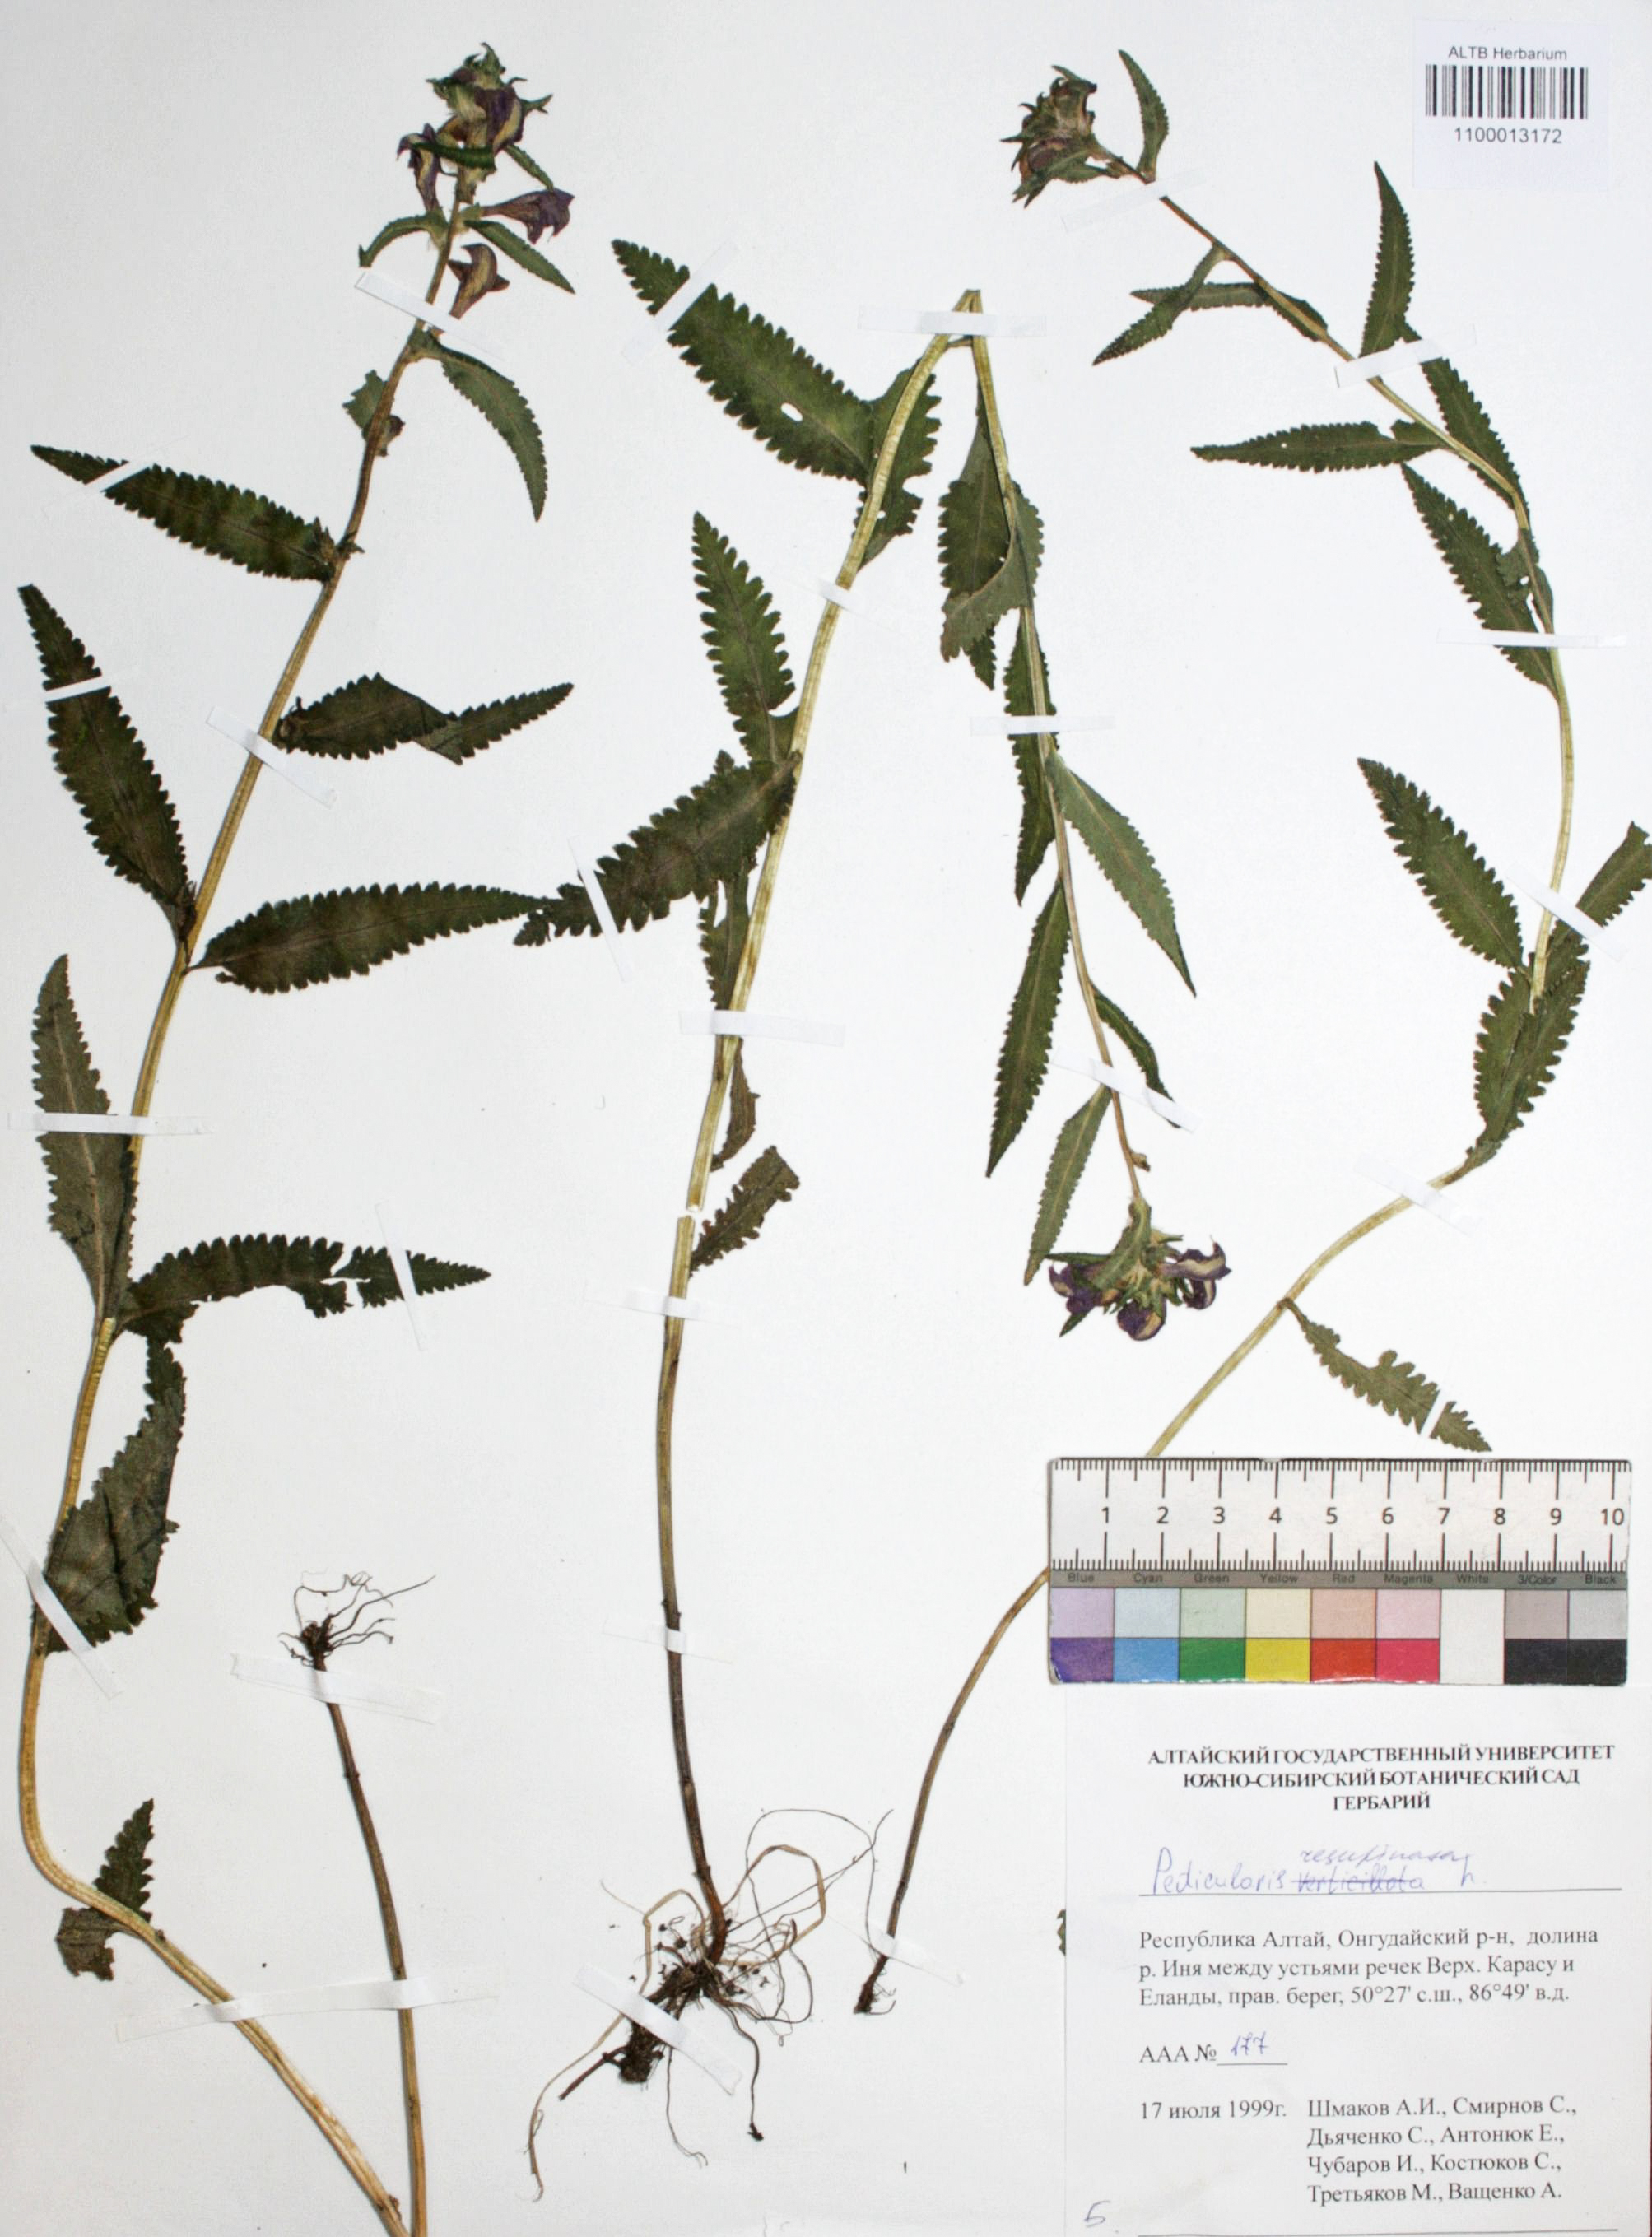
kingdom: Plantae
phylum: Tracheophyta
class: Magnoliopsida
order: Lamiales
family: Orobanchaceae
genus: Pedicularis
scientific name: Pedicularis resupinata
